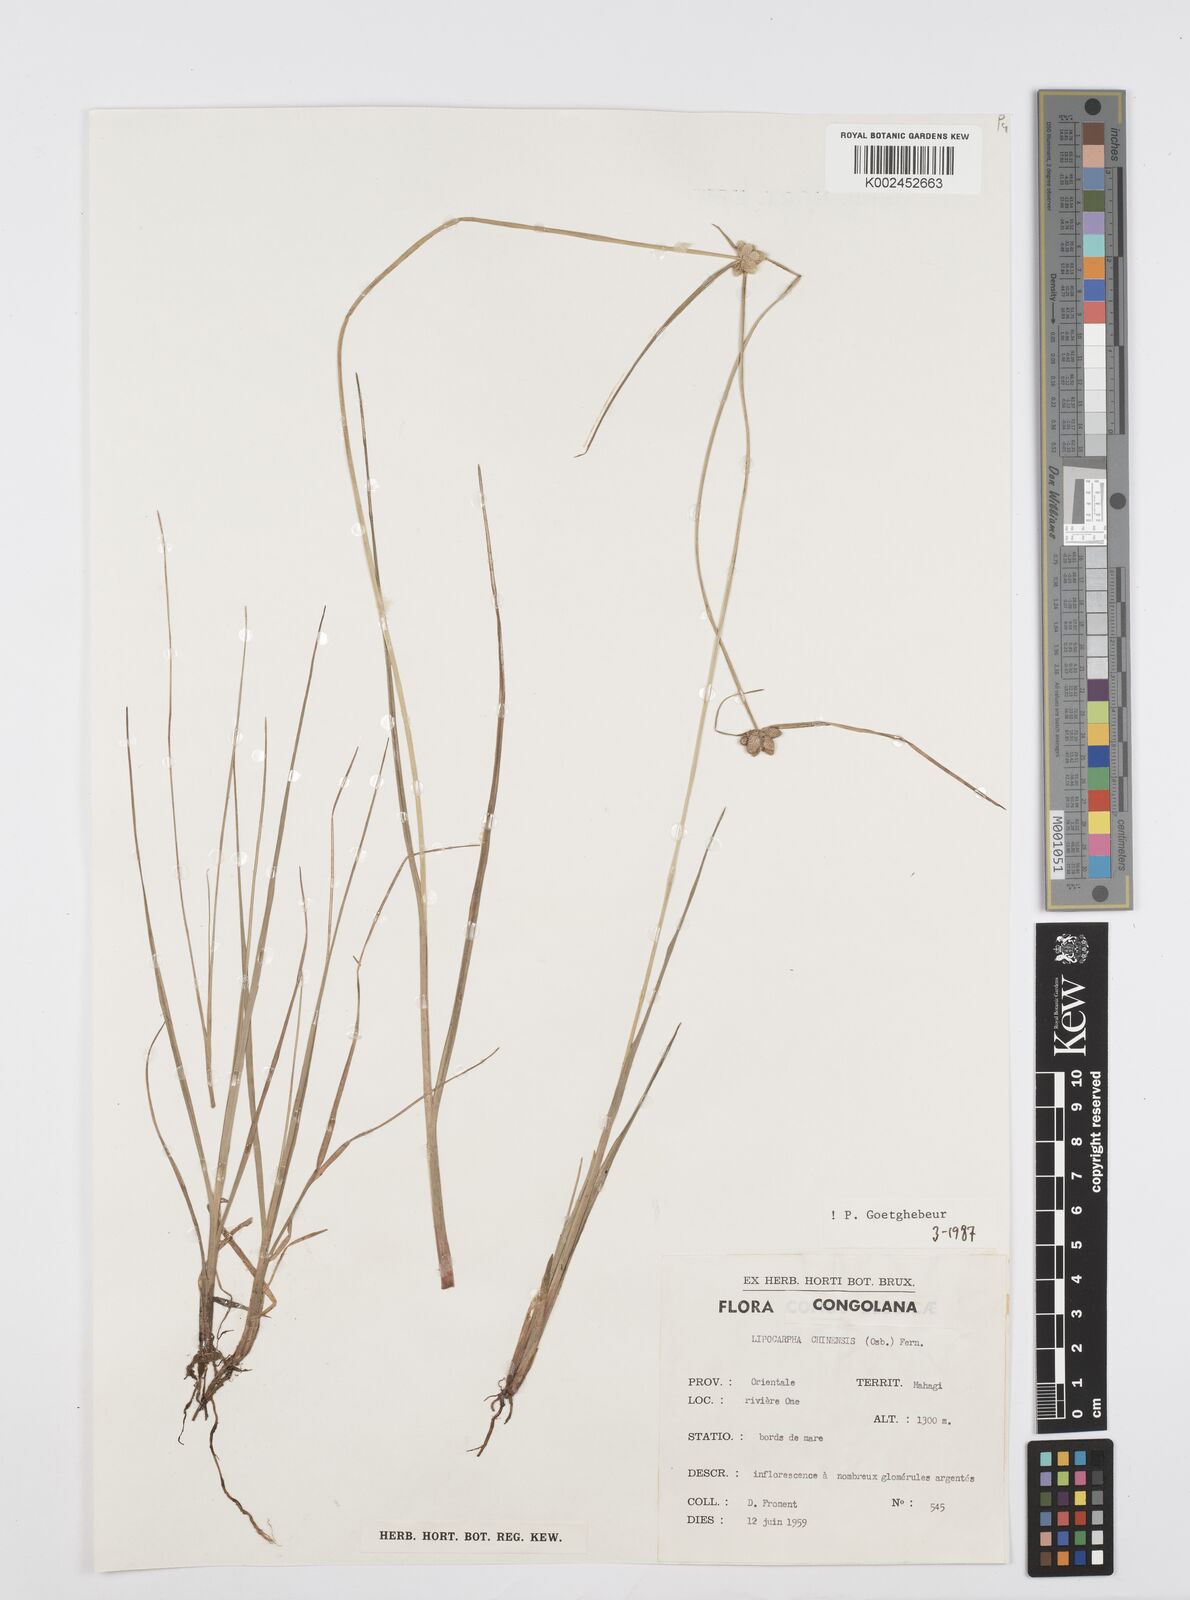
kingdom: Plantae
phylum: Tracheophyta
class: Liliopsida
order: Poales
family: Cyperaceae
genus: Cyperus
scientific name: Cyperus albescens
